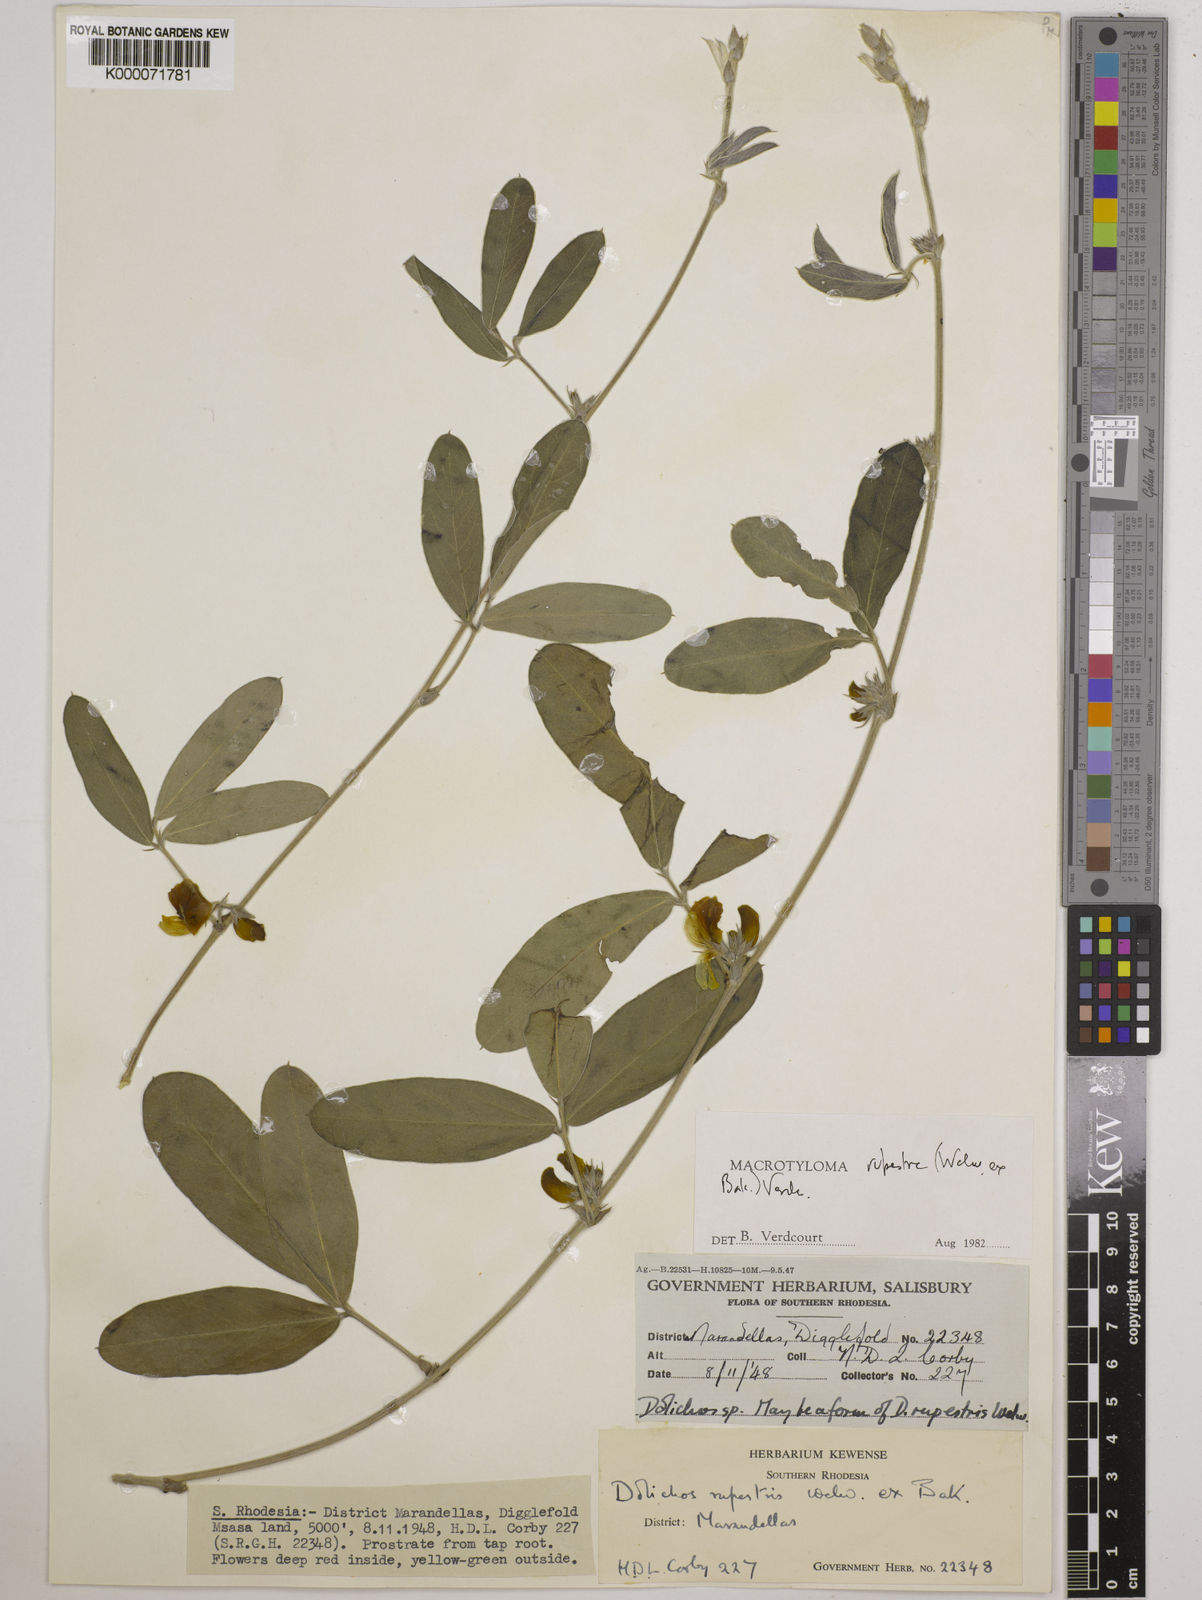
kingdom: Plantae
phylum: Tracheophyta
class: Magnoliopsida
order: Fabales
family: Fabaceae
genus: Macrotyloma
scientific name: Macrotyloma rupestre
